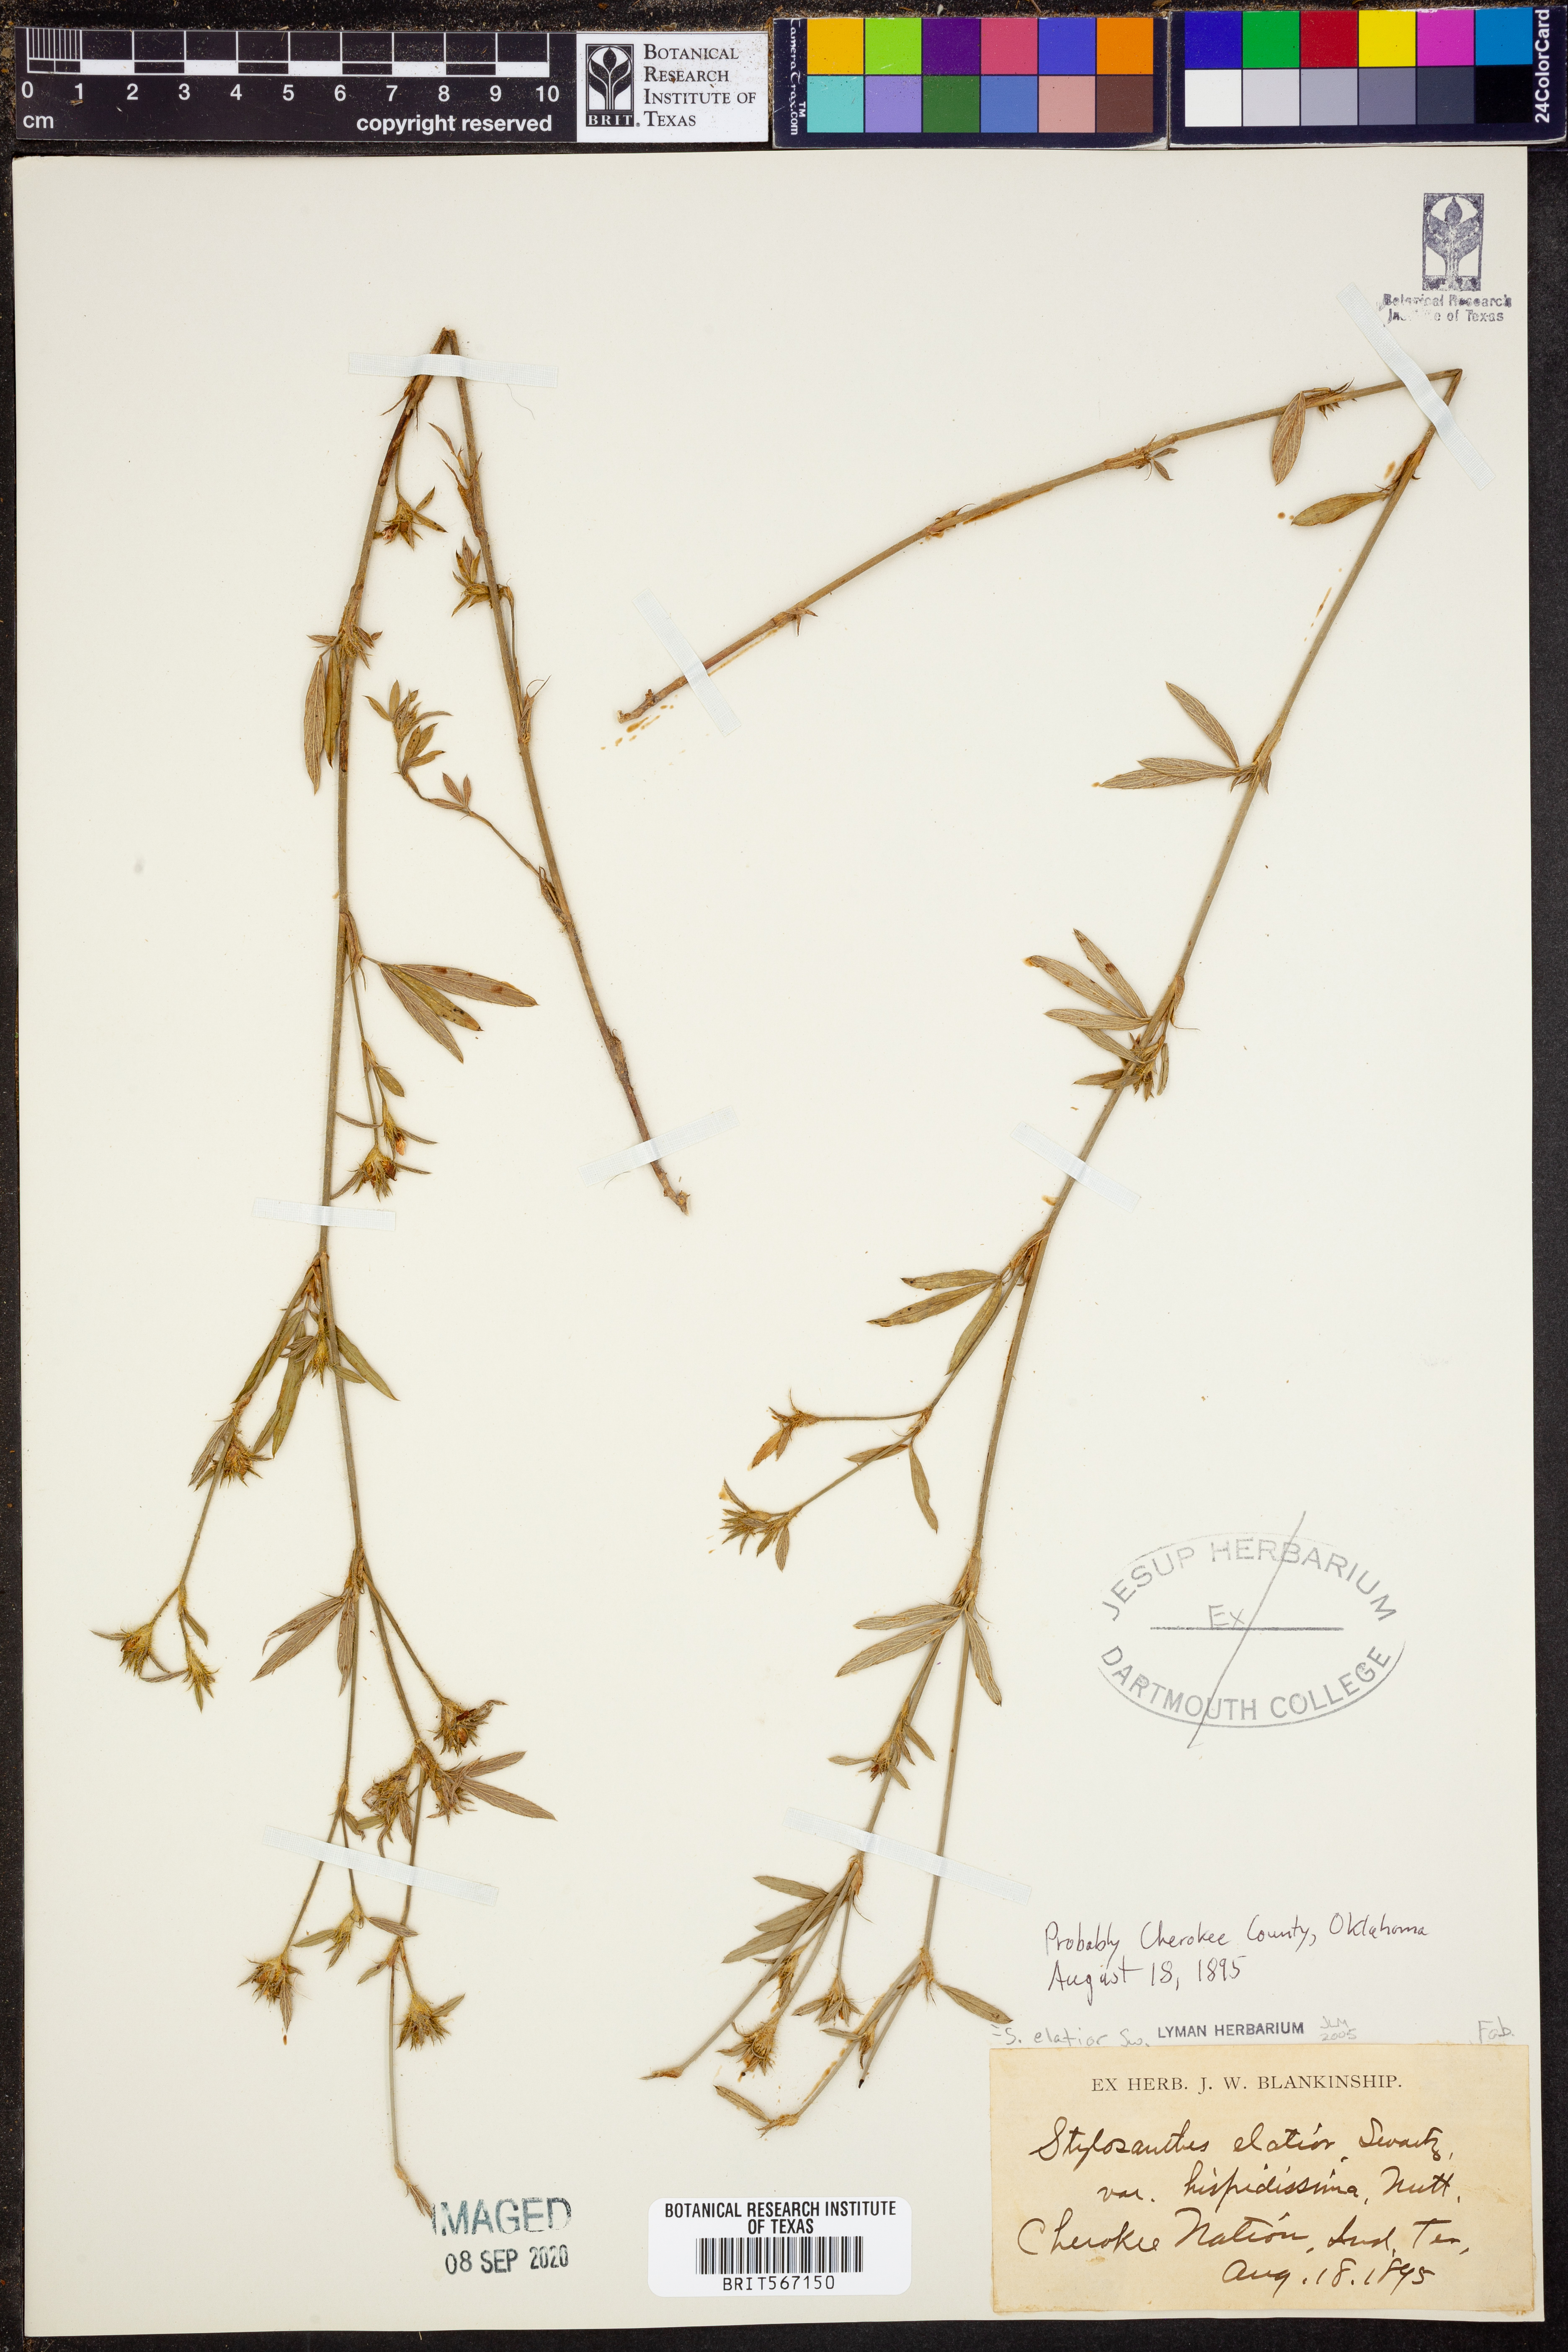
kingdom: Plantae
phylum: Tracheophyta
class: Magnoliopsida
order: Fabales
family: Fabaceae
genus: Stylosanthes
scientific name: Stylosanthes biflora
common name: Two-flower pencil-flower
